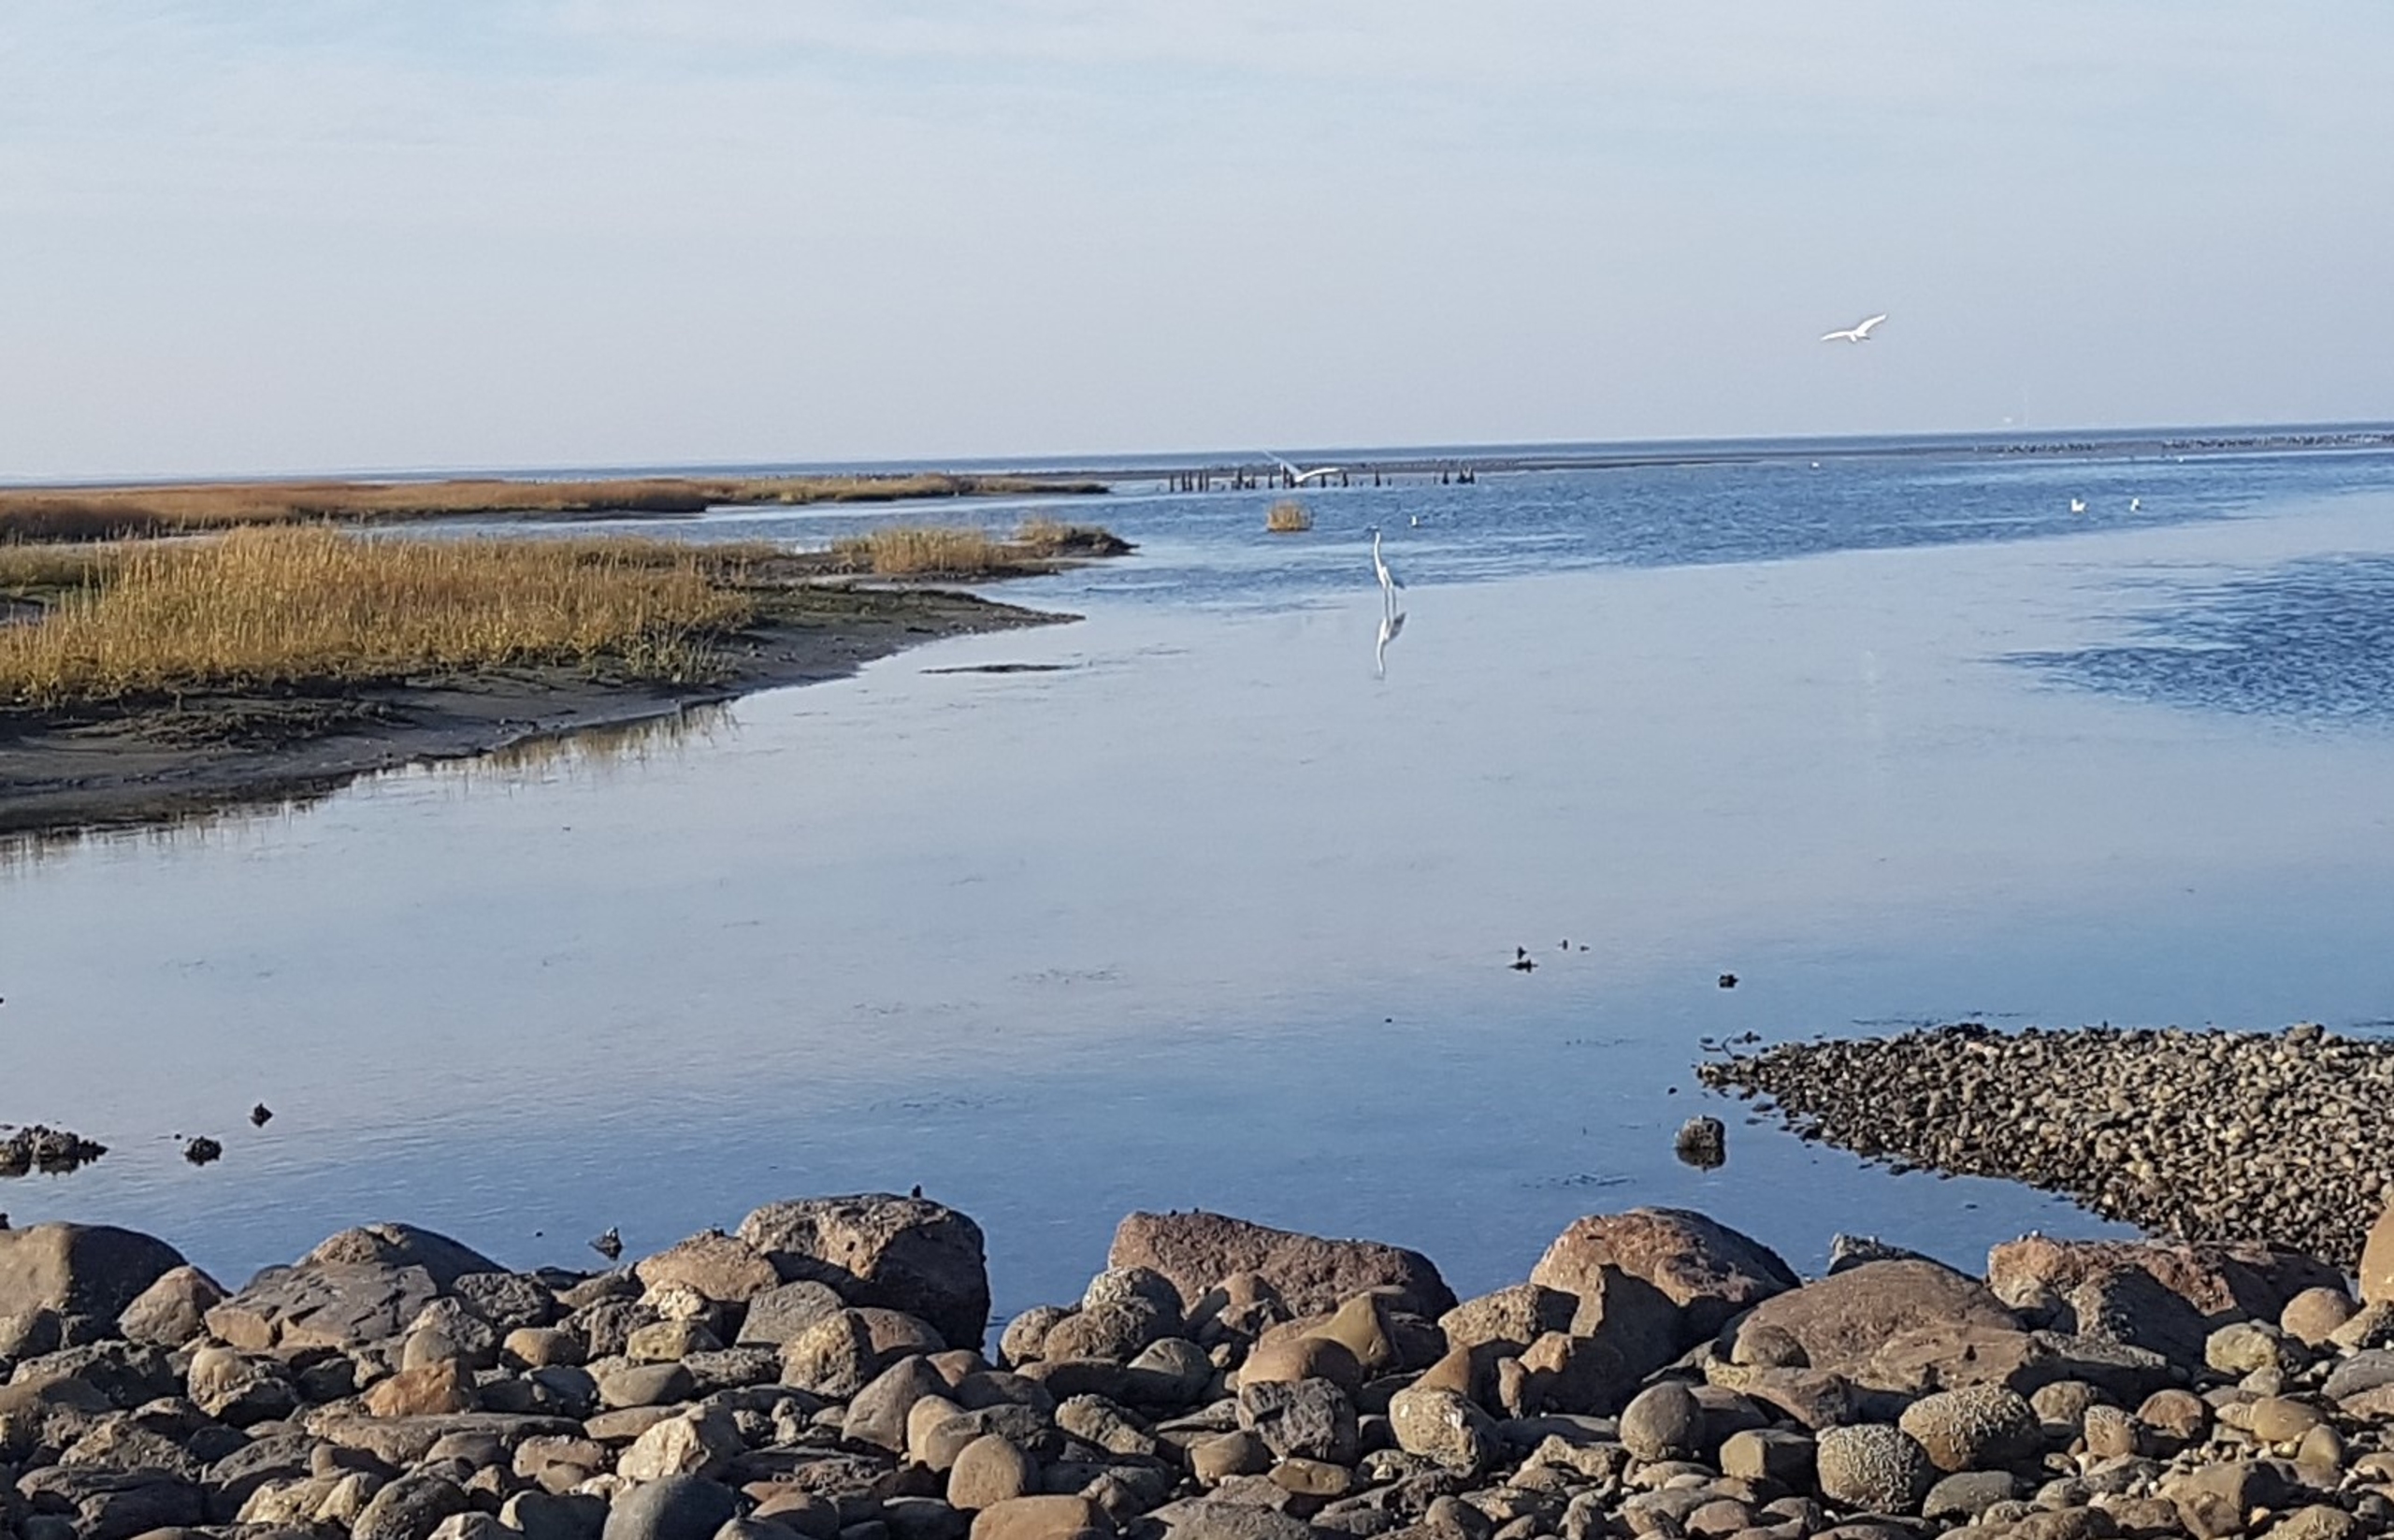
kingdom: Animalia
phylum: Chordata
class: Aves
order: Pelecaniformes
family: Ardeidae
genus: Ardea
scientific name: Ardea alba
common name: Sølvhejre
